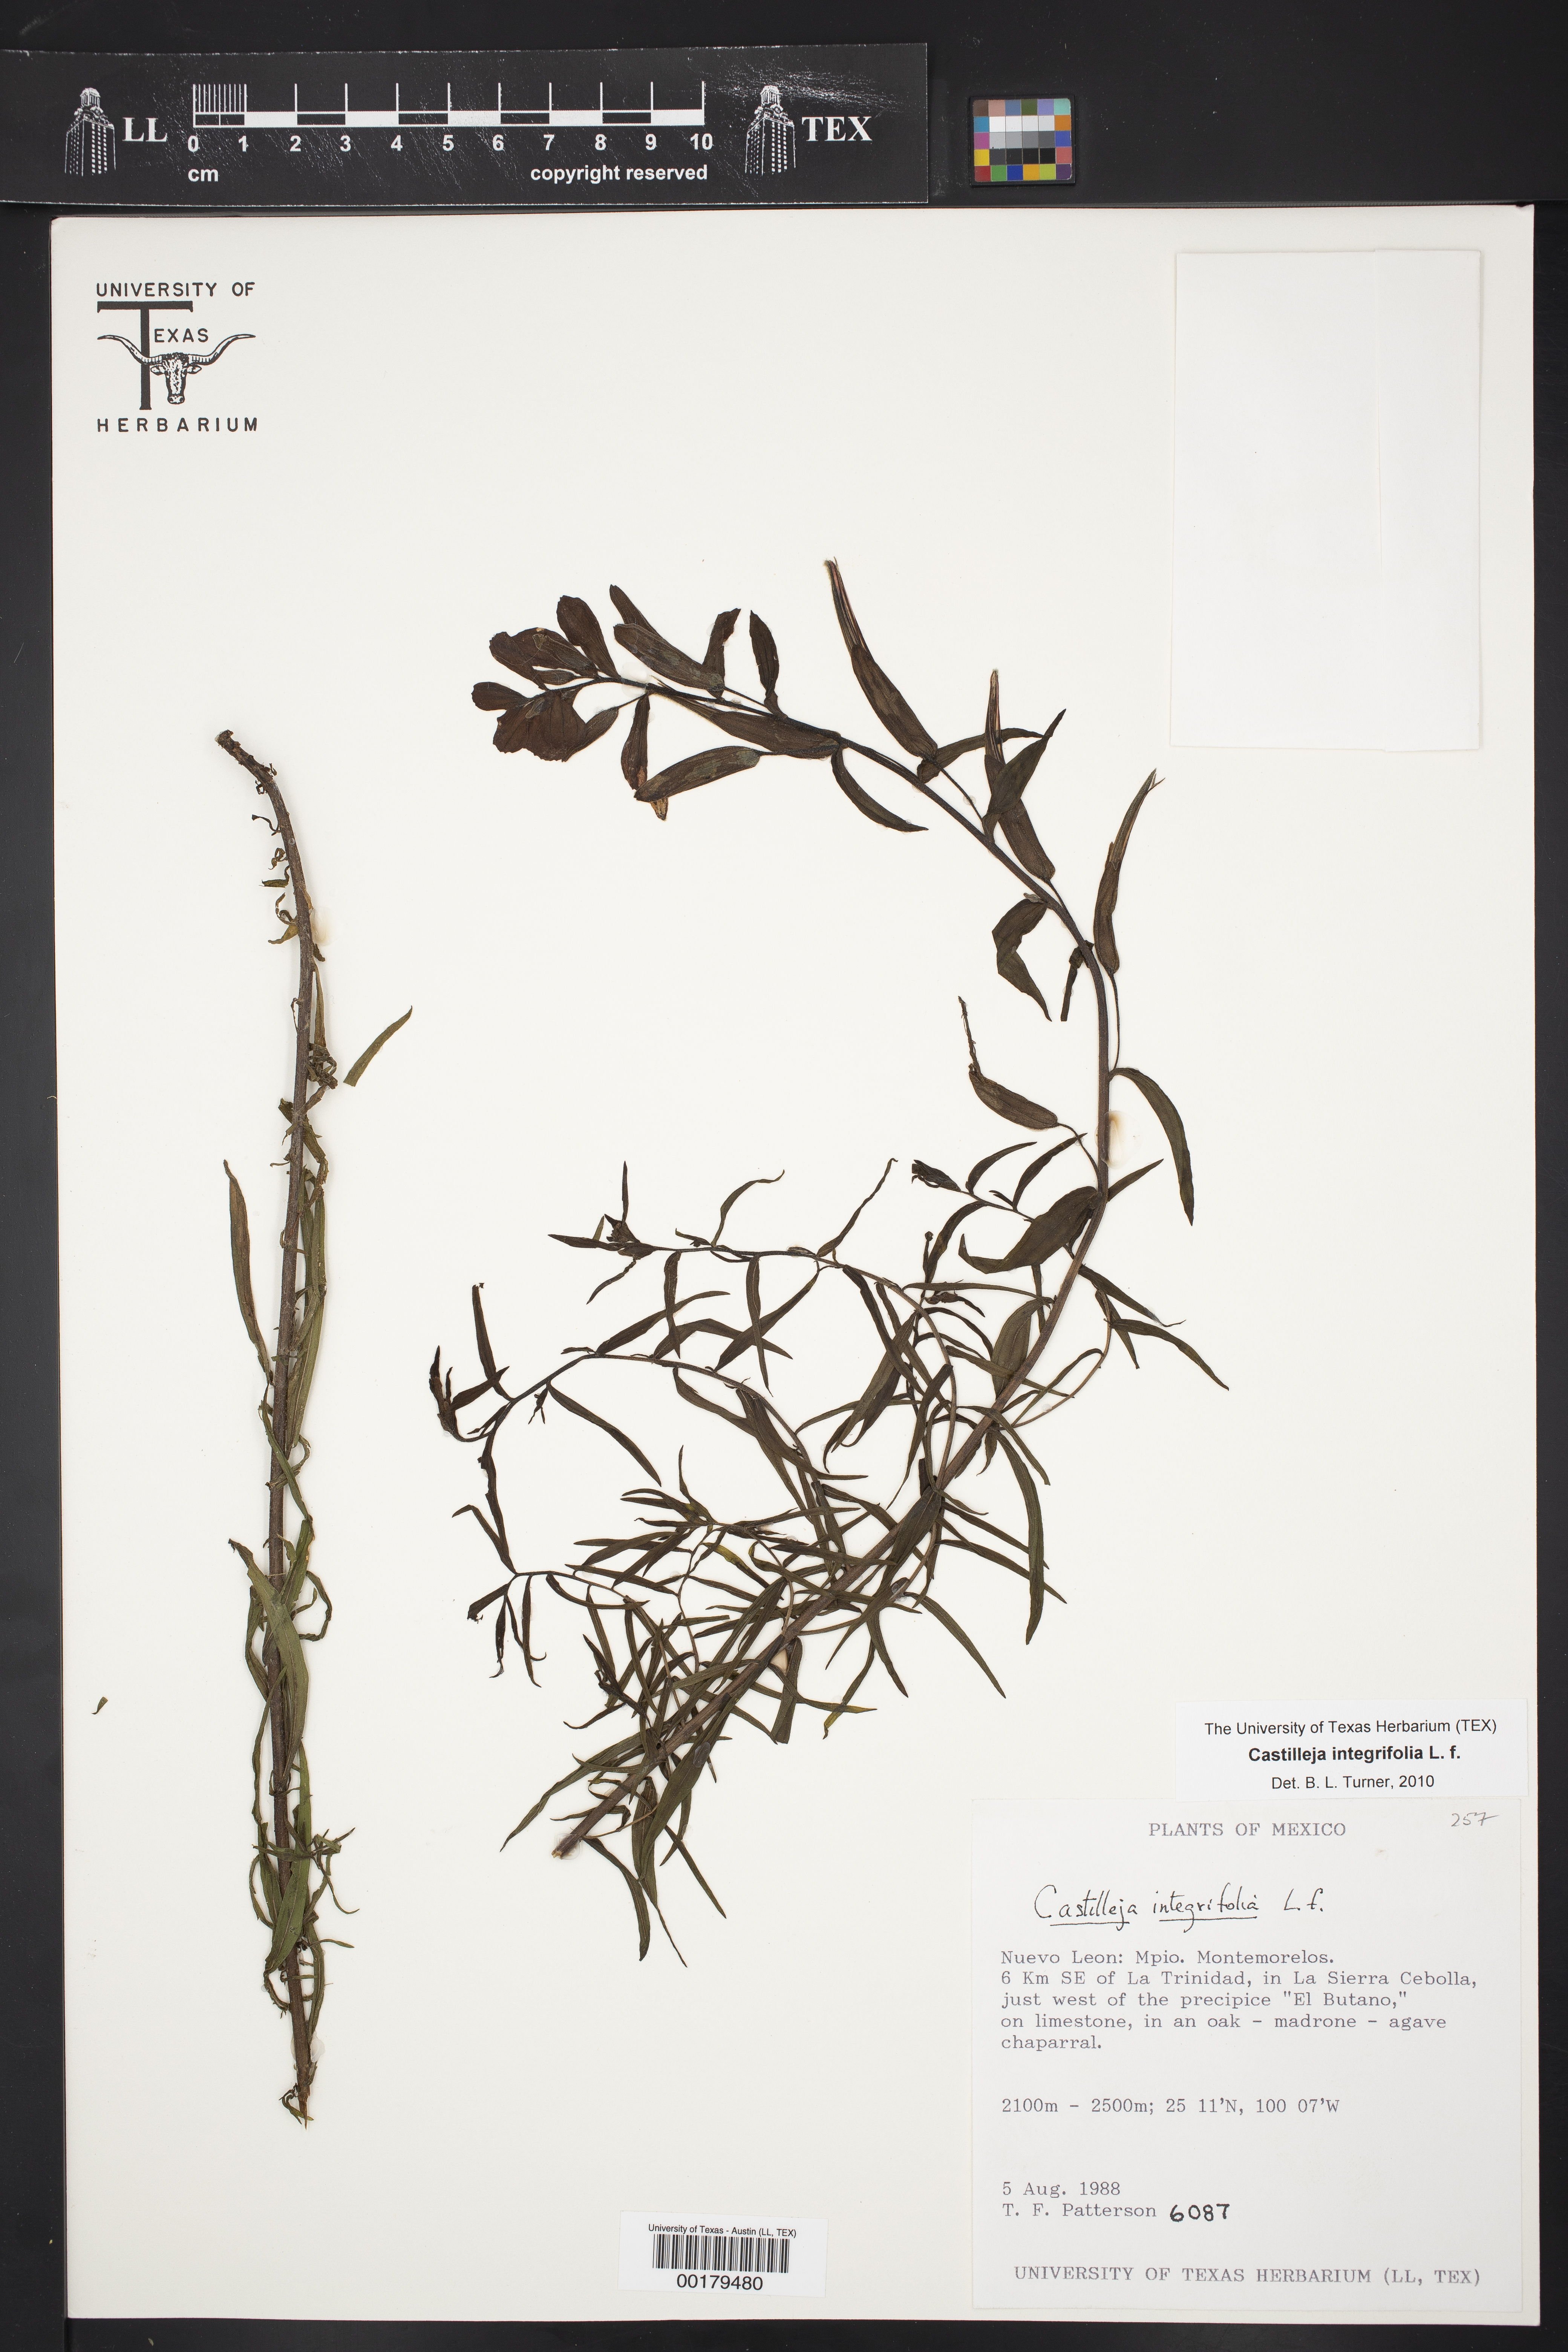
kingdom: Plantae
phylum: Tracheophyta
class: Magnoliopsida
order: Lamiales
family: Orobanchaceae
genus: Castilleja
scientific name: Castilleja integrifolia
